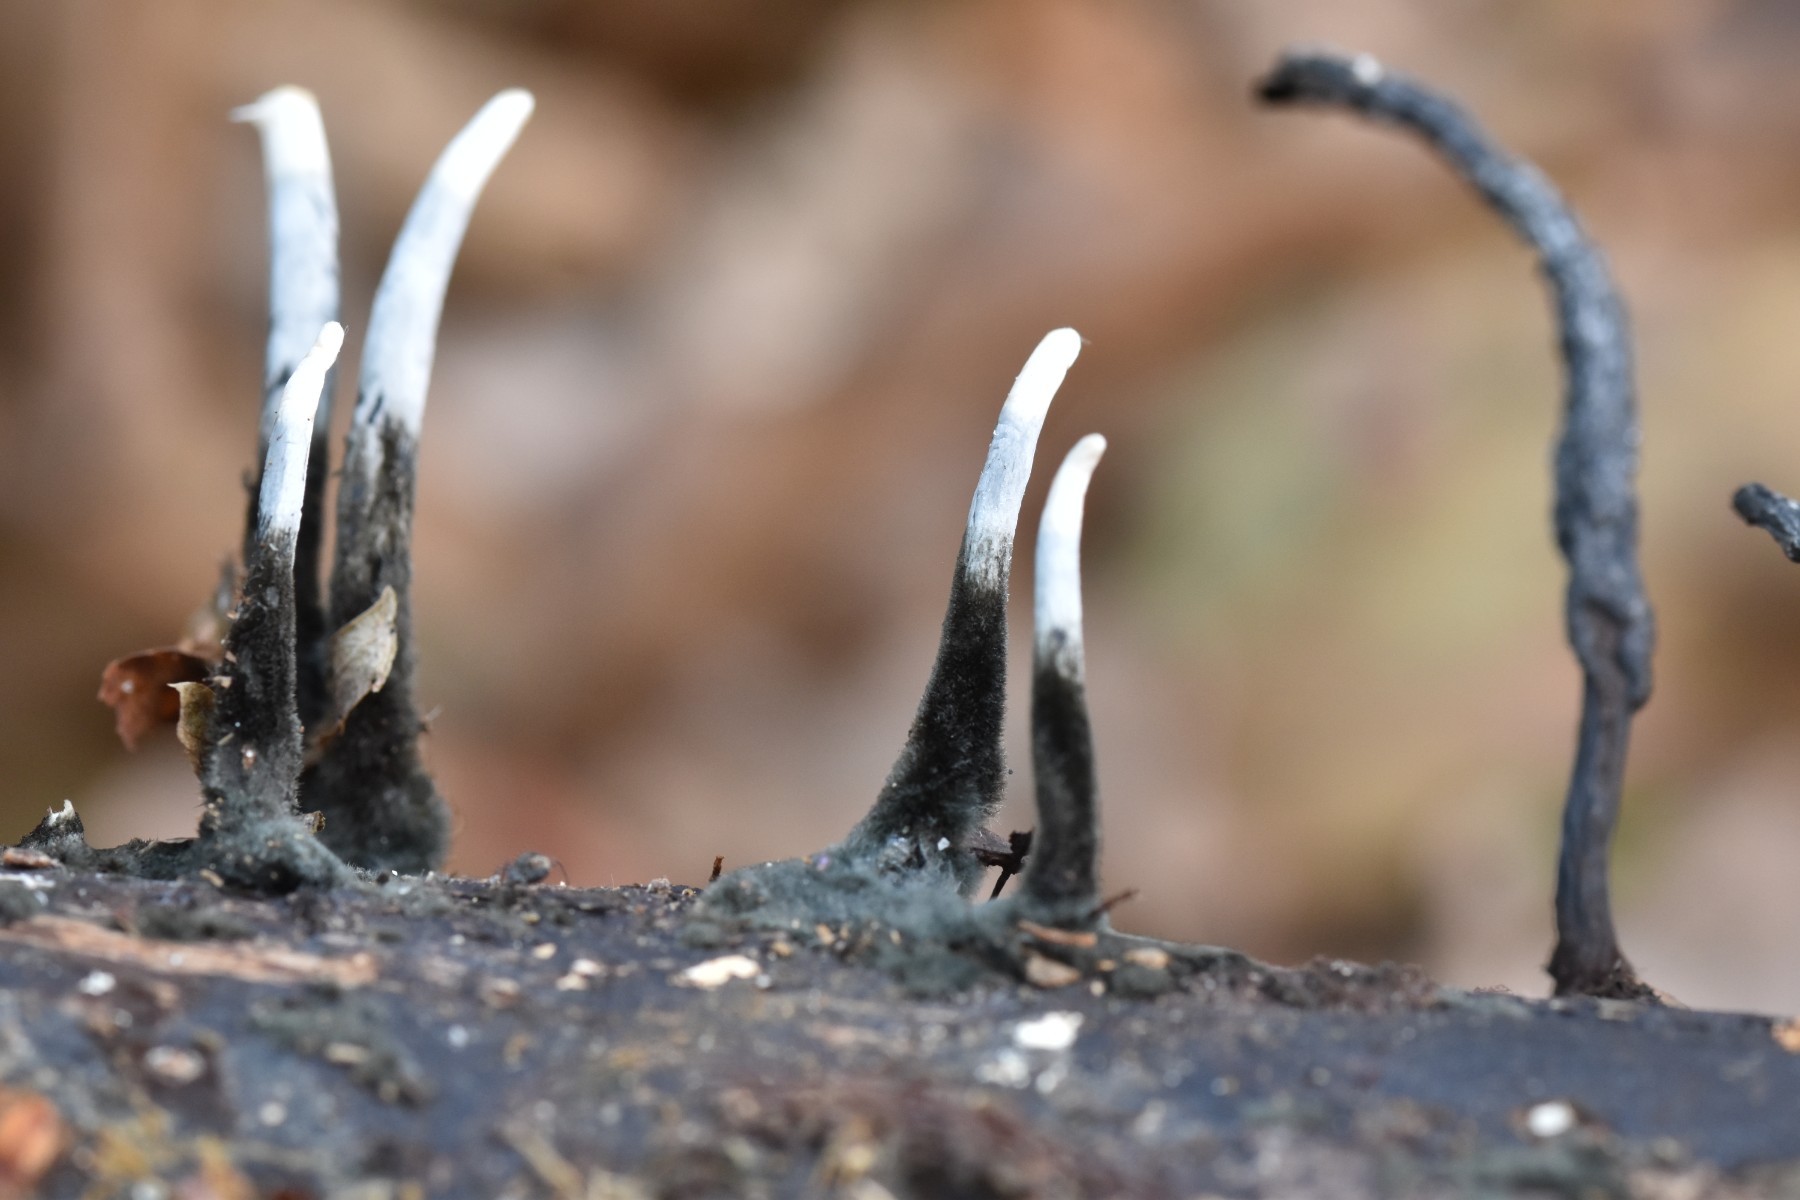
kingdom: Fungi
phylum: Ascomycota
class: Sordariomycetes
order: Xylariales
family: Xylariaceae
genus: Xylaria
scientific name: Xylaria hypoxylon
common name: grenet stødsvamp
